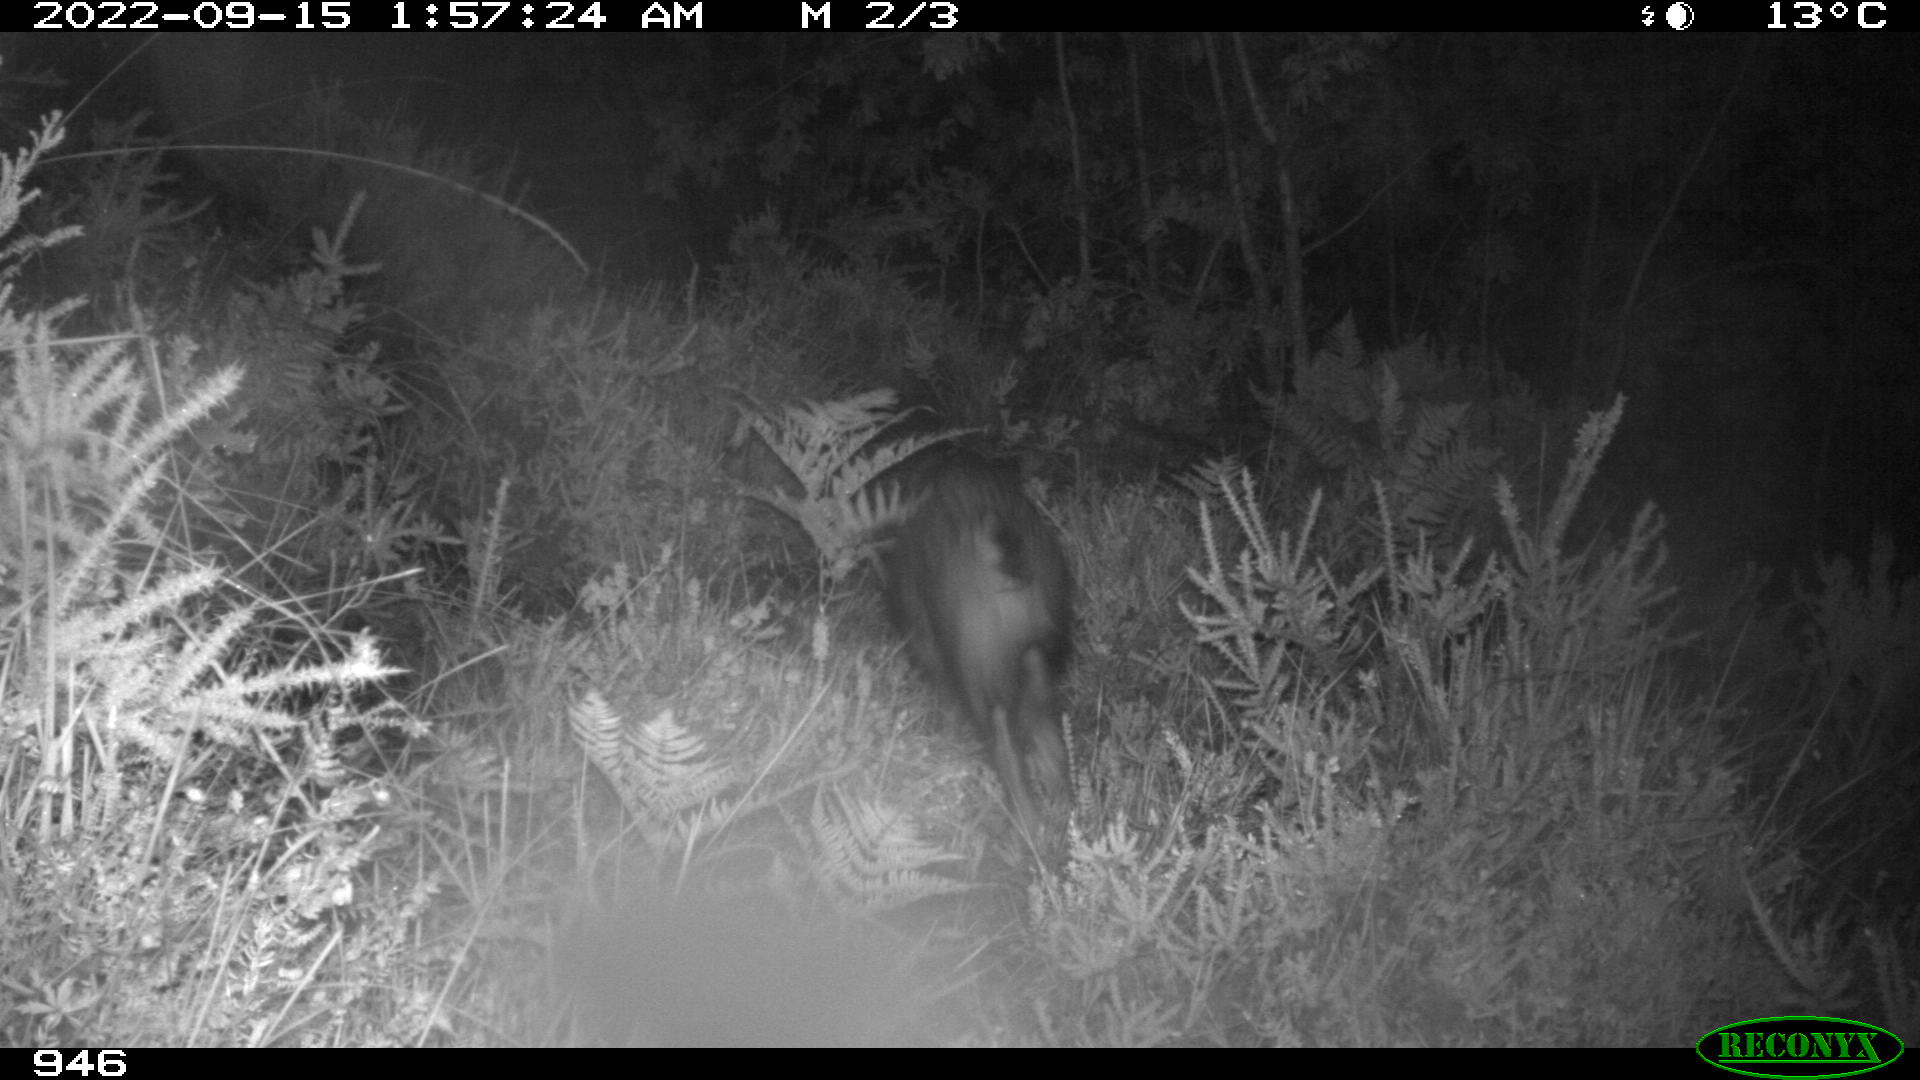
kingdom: Animalia
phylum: Chordata
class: Mammalia
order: Artiodactyla
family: Suidae
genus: Sus
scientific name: Sus scrofa
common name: Wild boar
